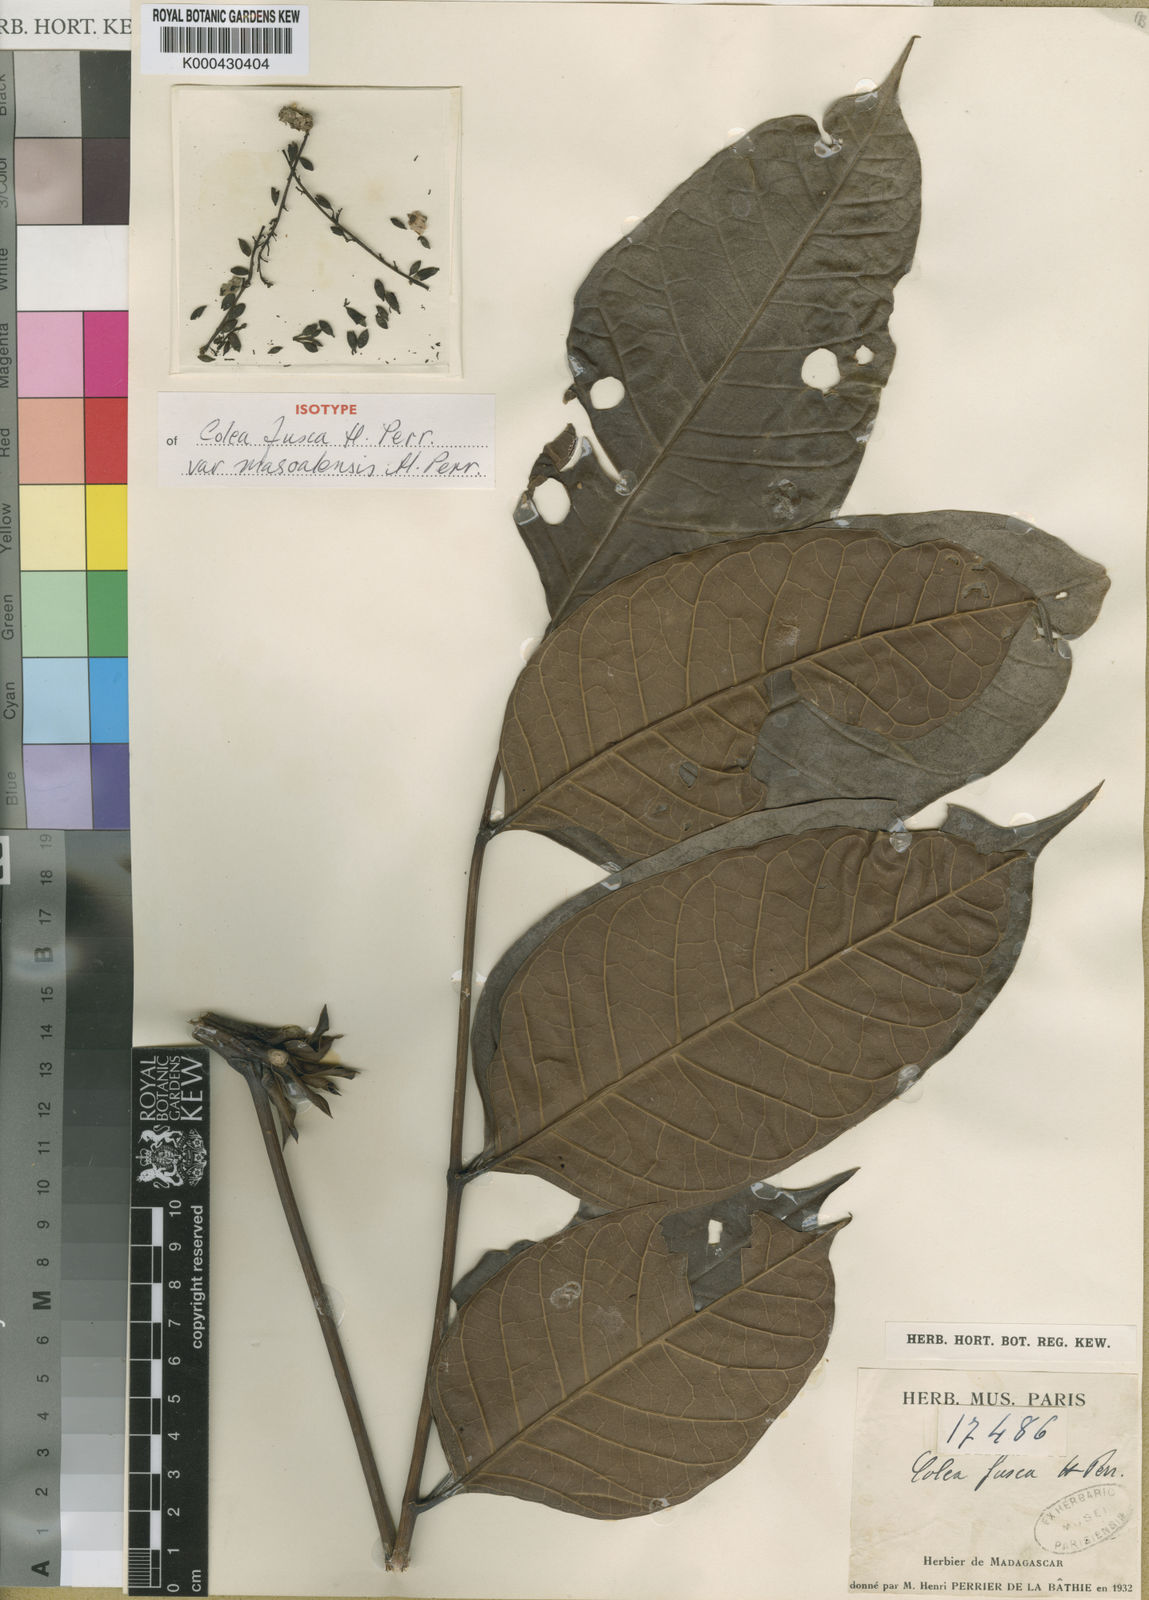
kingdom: Plantae
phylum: Tracheophyta
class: Magnoliopsida
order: Lamiales
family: Bignoniaceae
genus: Colea
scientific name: Colea fusca
